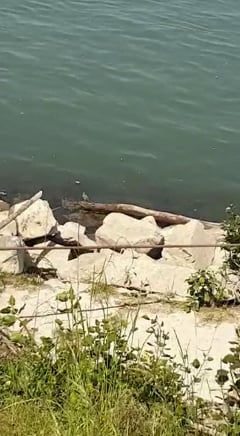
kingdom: Animalia
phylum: Chordata
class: Aves
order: Passeriformes
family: Laniidae
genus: Lanius
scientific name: Lanius excubitor
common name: Great grey shrike
